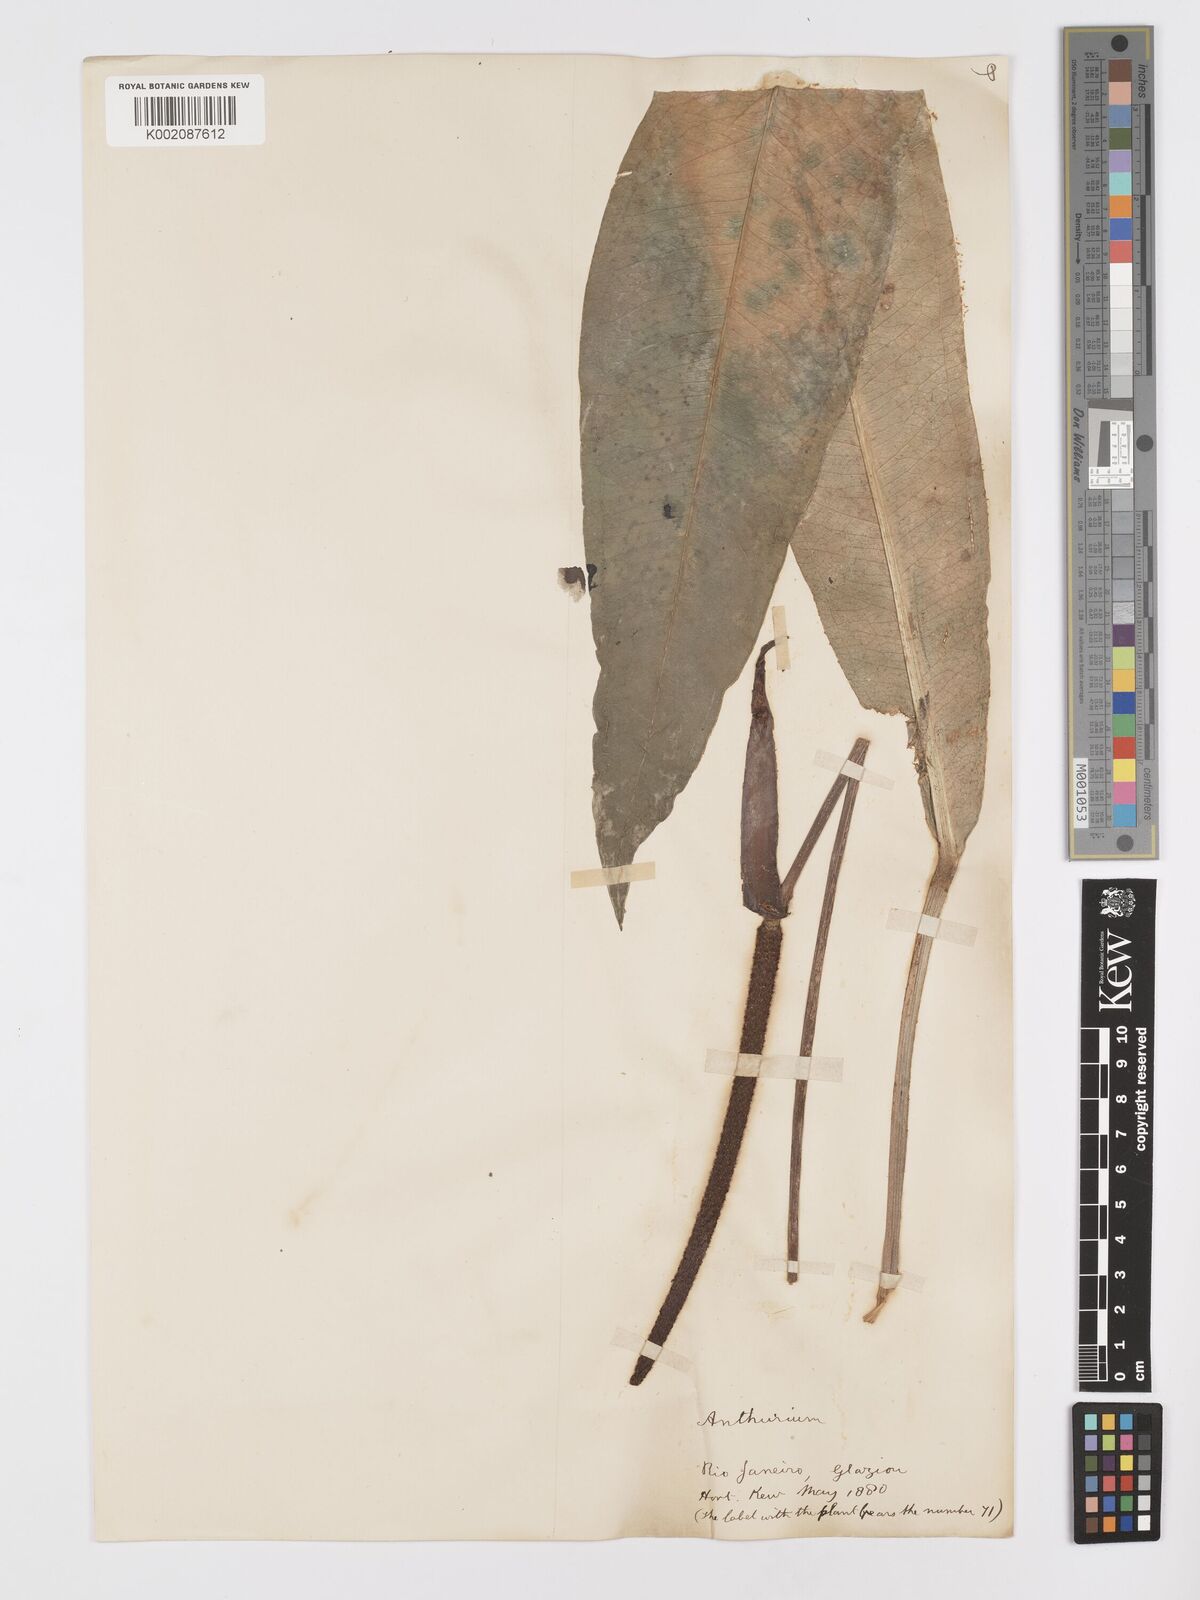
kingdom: Plantae
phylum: Tracheophyta
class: Liliopsida
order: Alismatales
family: Araceae
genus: Anthurium
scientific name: Anthurium harrisii
